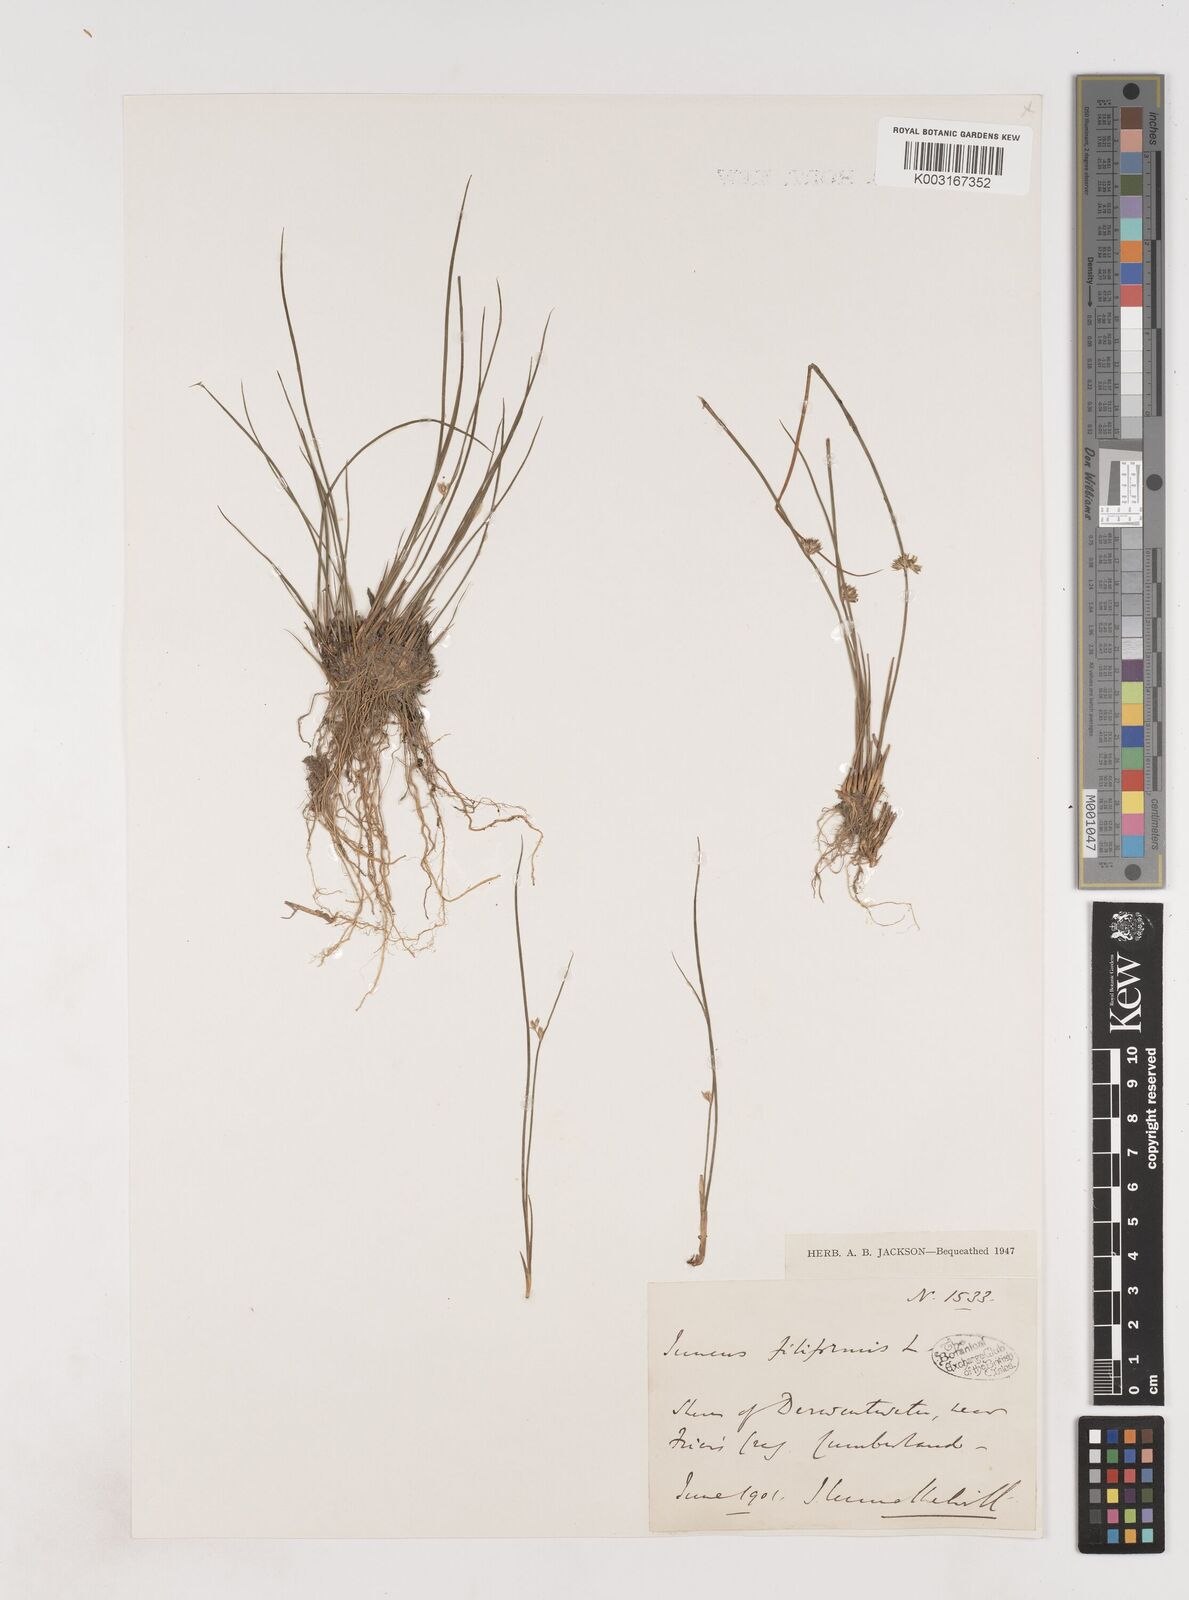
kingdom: Plantae
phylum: Tracheophyta
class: Liliopsida
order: Poales
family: Juncaceae
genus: Juncus
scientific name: Juncus filiformis
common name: Thread rush
